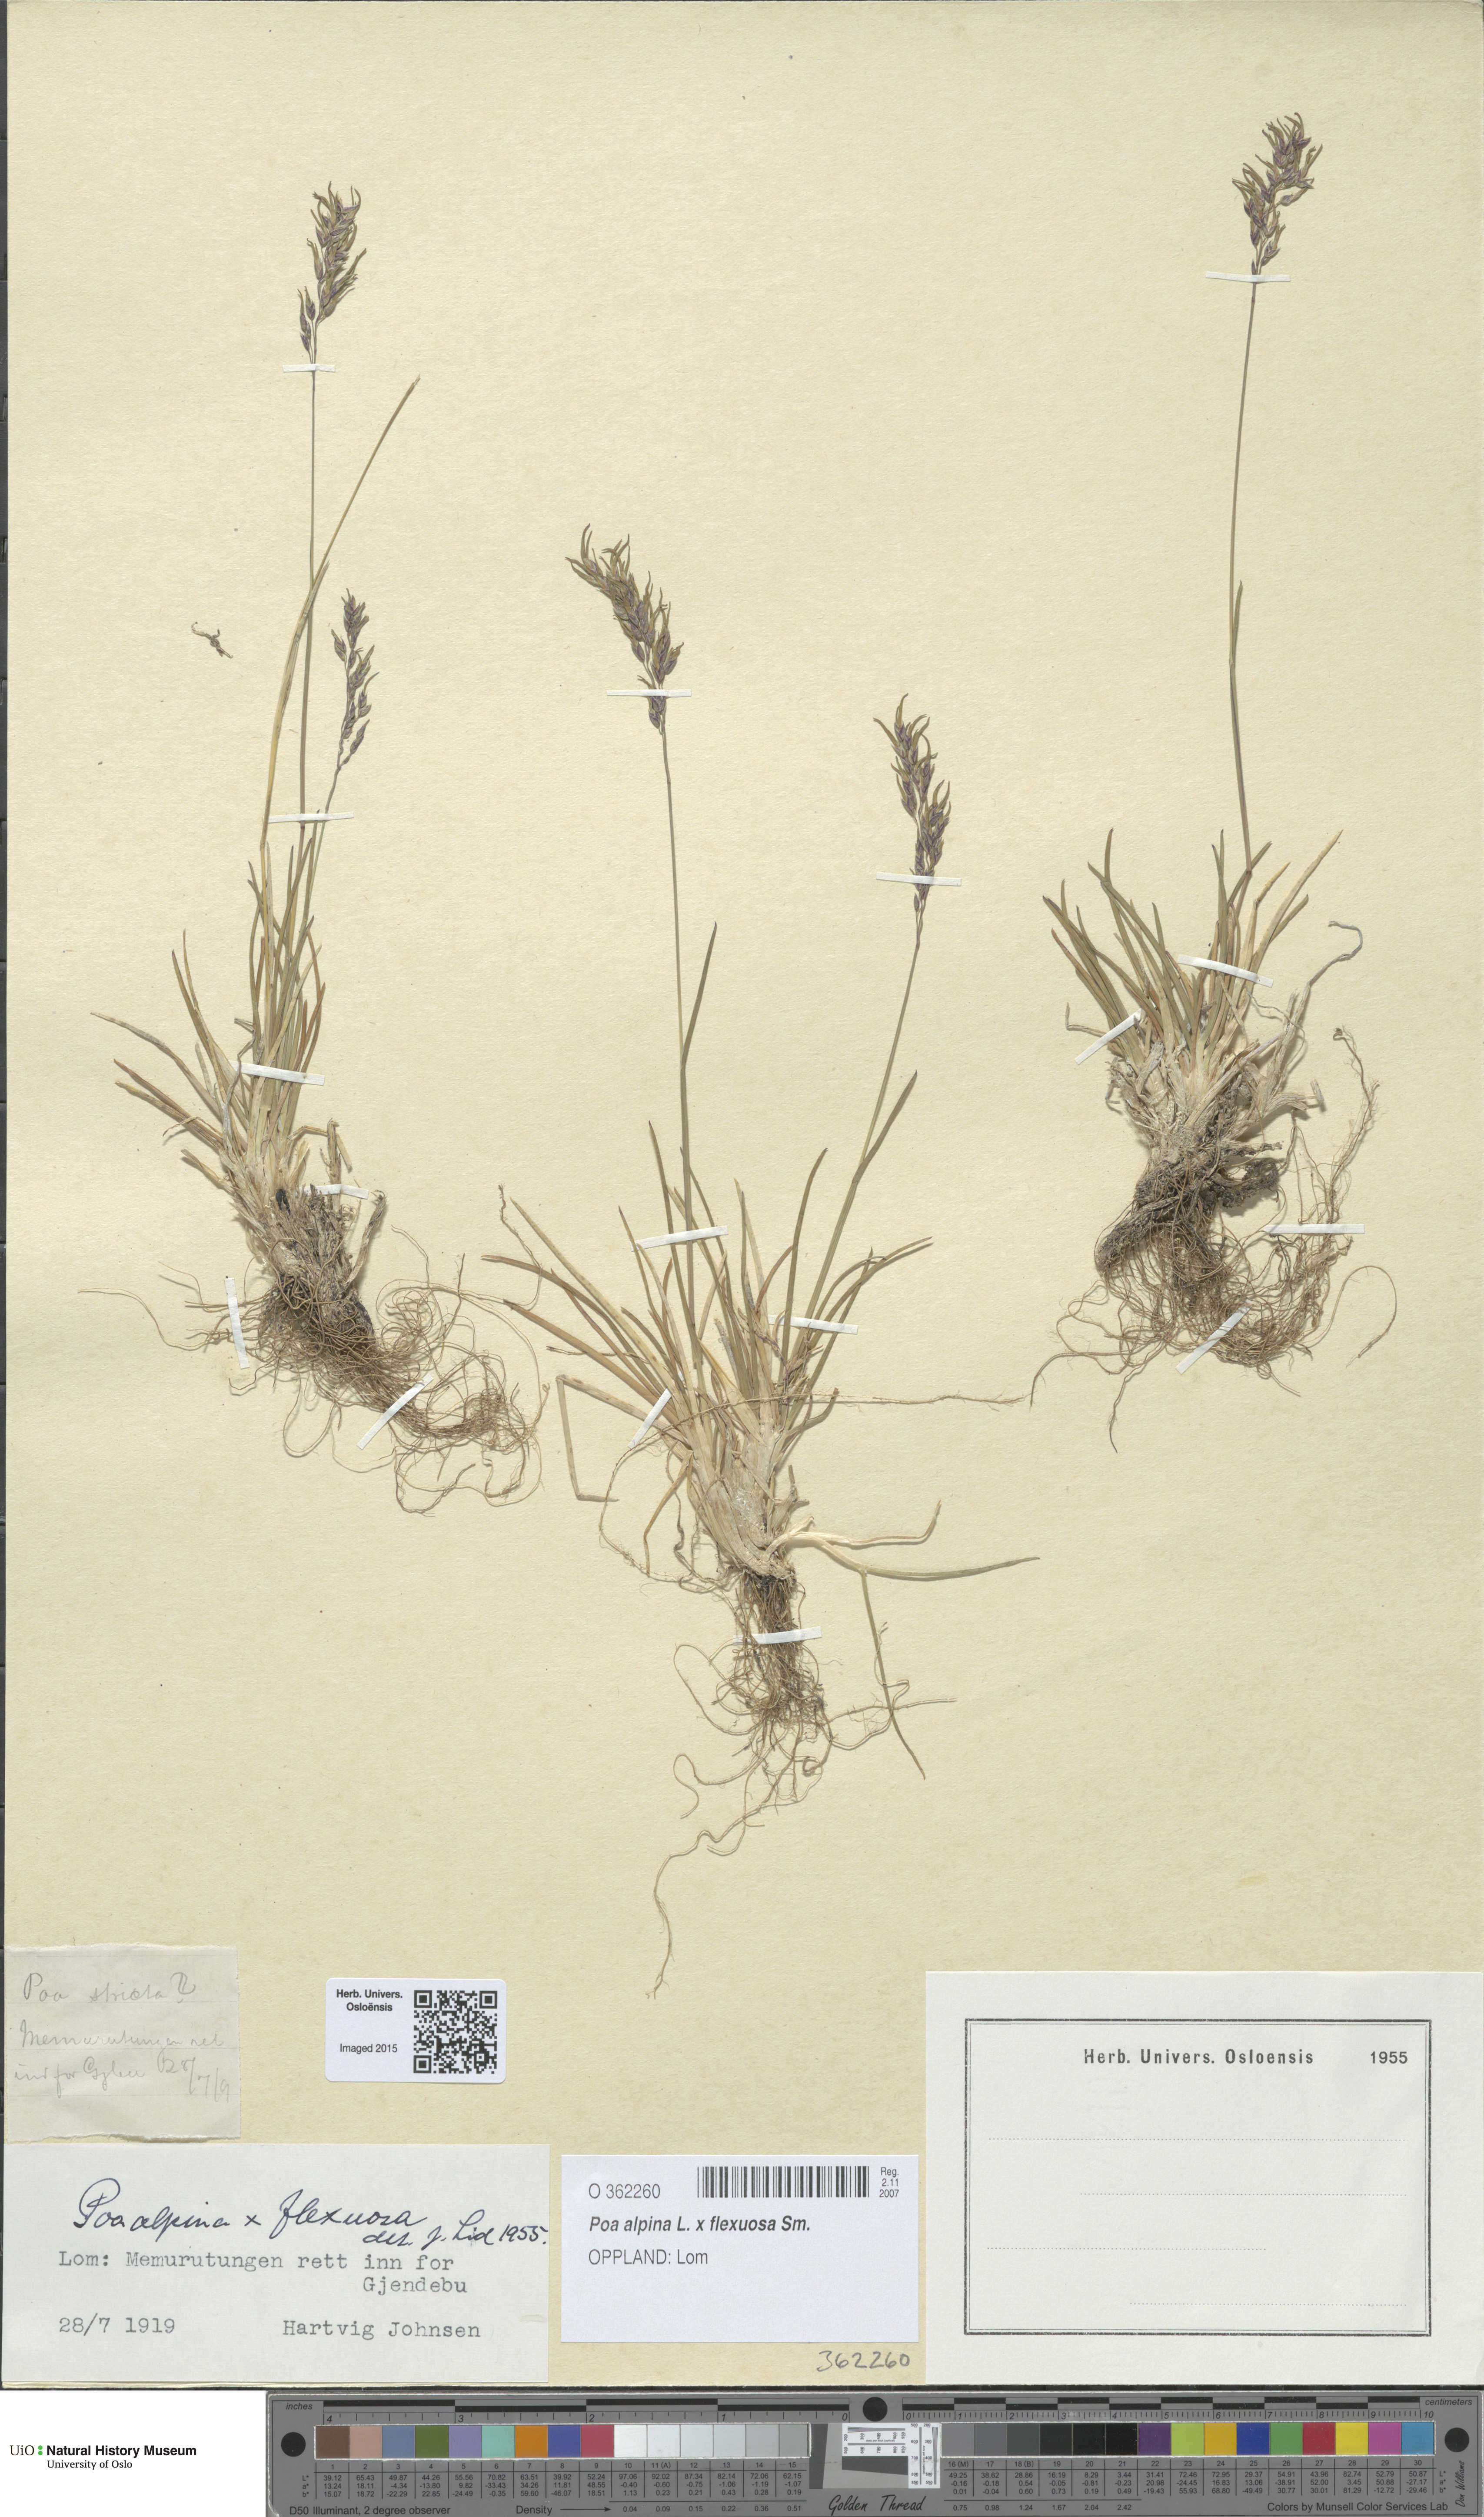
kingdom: Plantae
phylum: Tracheophyta
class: Liliopsida
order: Poales
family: Poaceae
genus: Poa
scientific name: Poa
